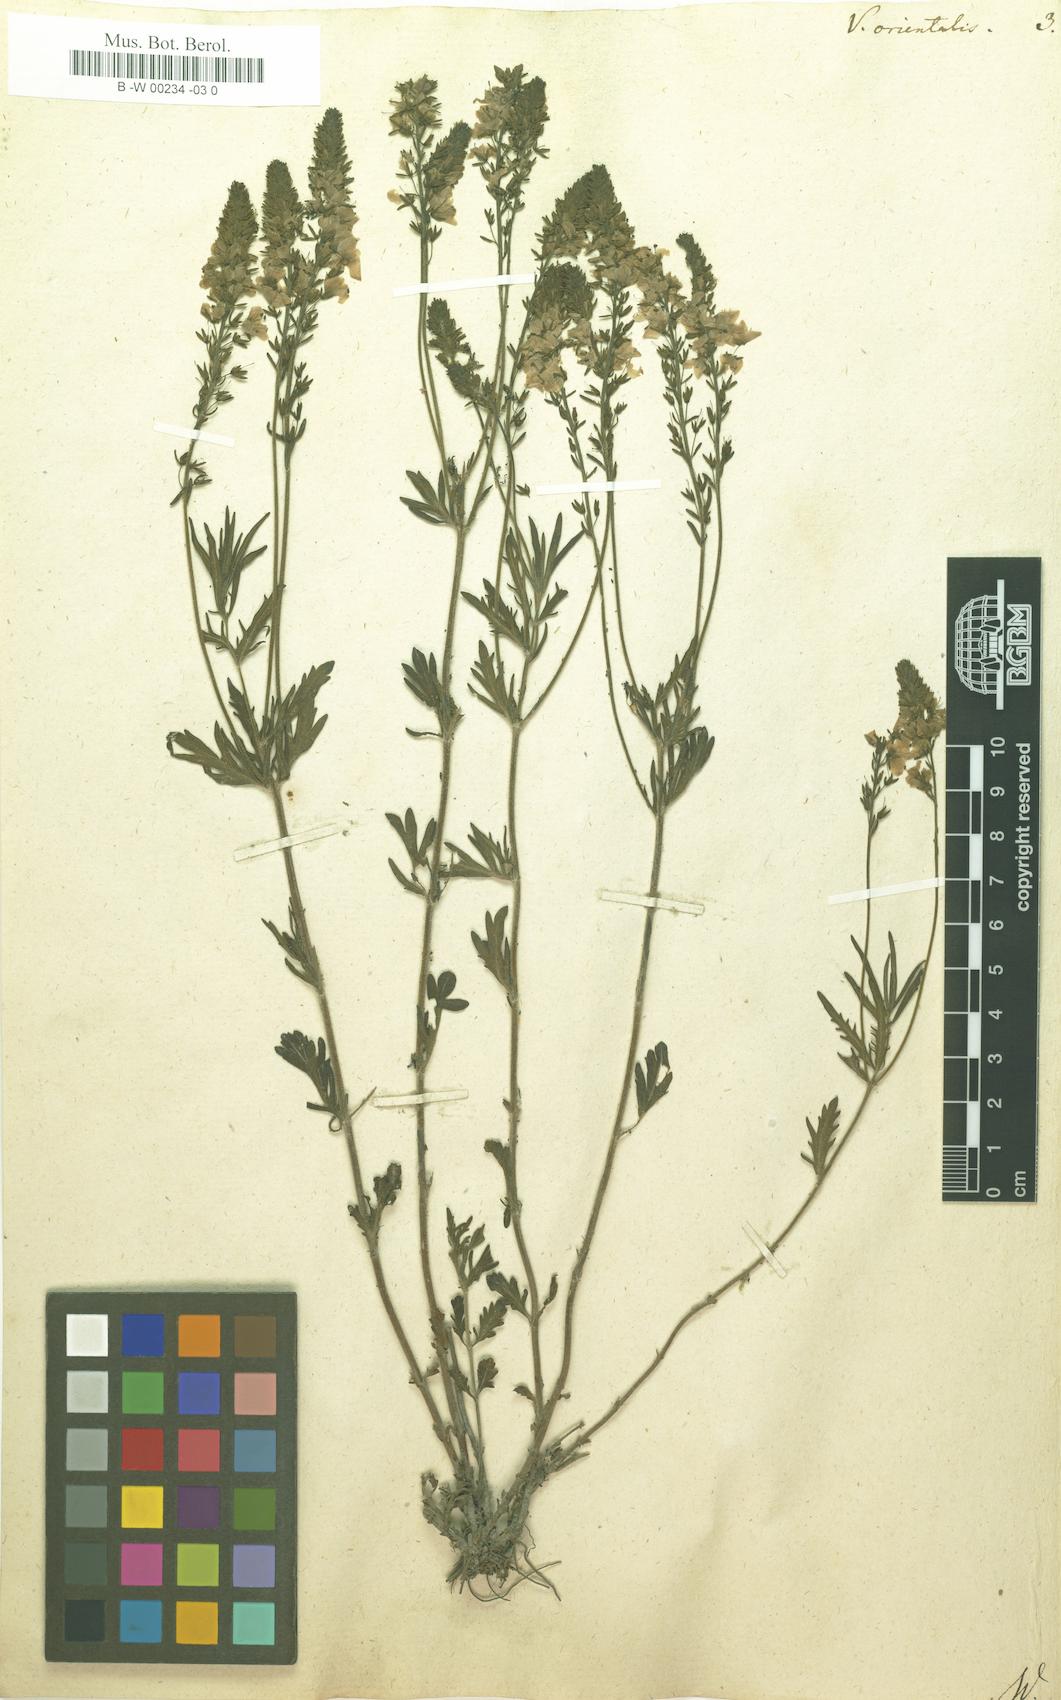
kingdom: Plantae
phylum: Tracheophyta
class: Magnoliopsida
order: Lamiales
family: Plantaginaceae
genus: Veronica
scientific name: Veronica orientalis
